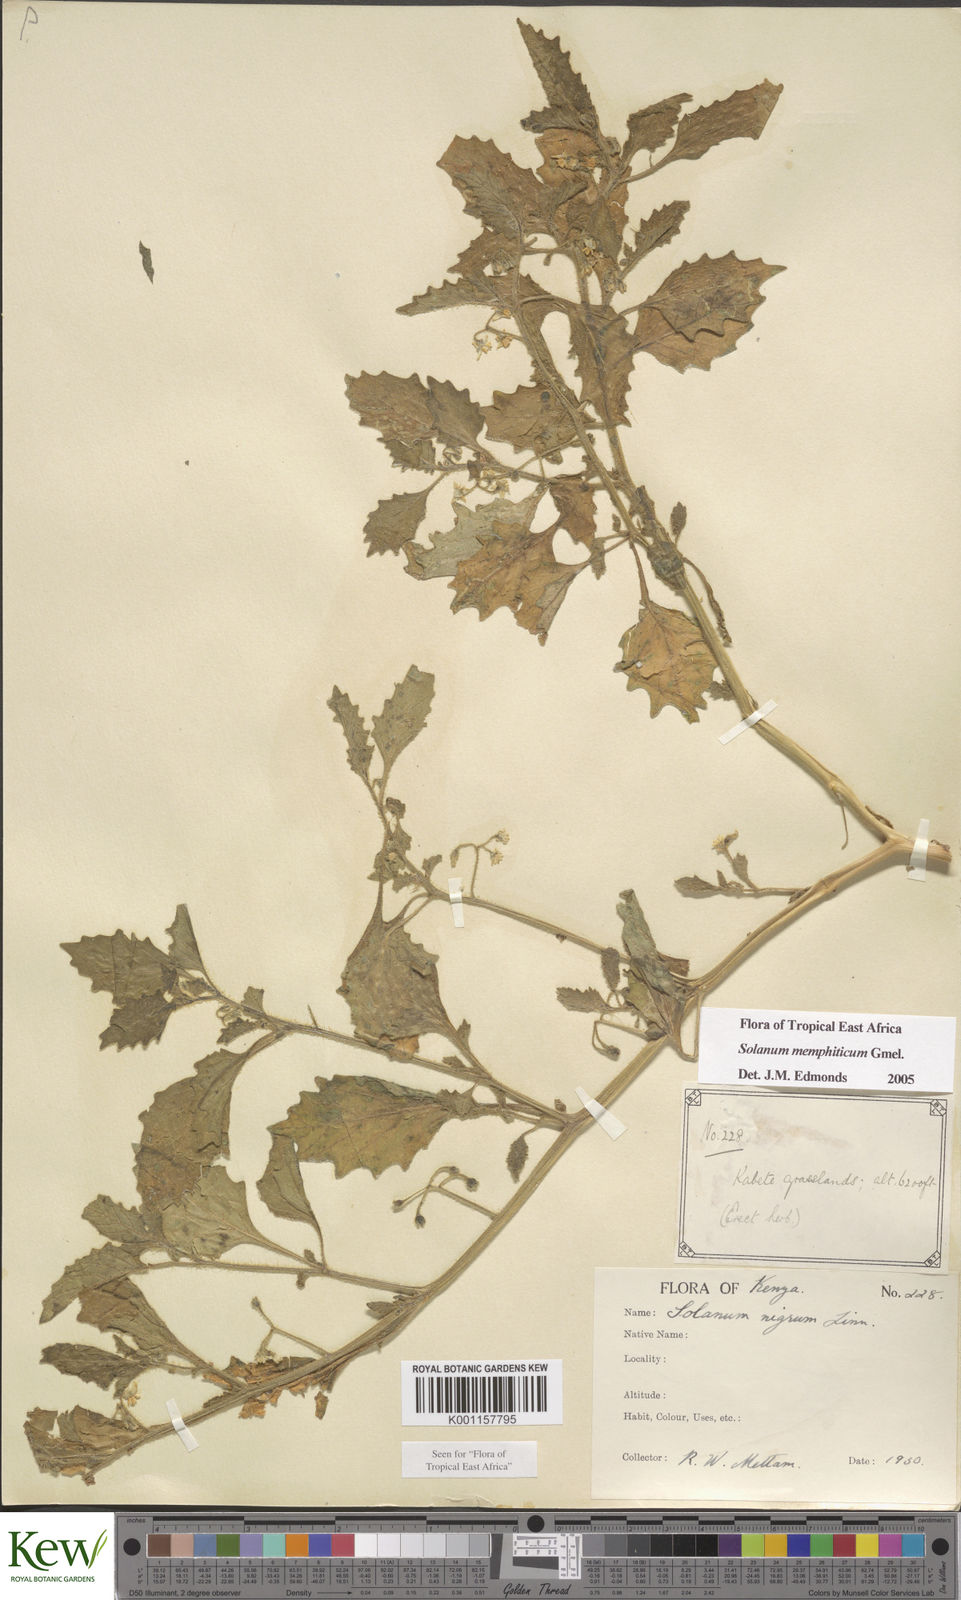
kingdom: Plantae
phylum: Tracheophyta
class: Magnoliopsida
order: Solanales
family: Solanaceae
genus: Solanum
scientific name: Solanum memphiticum
